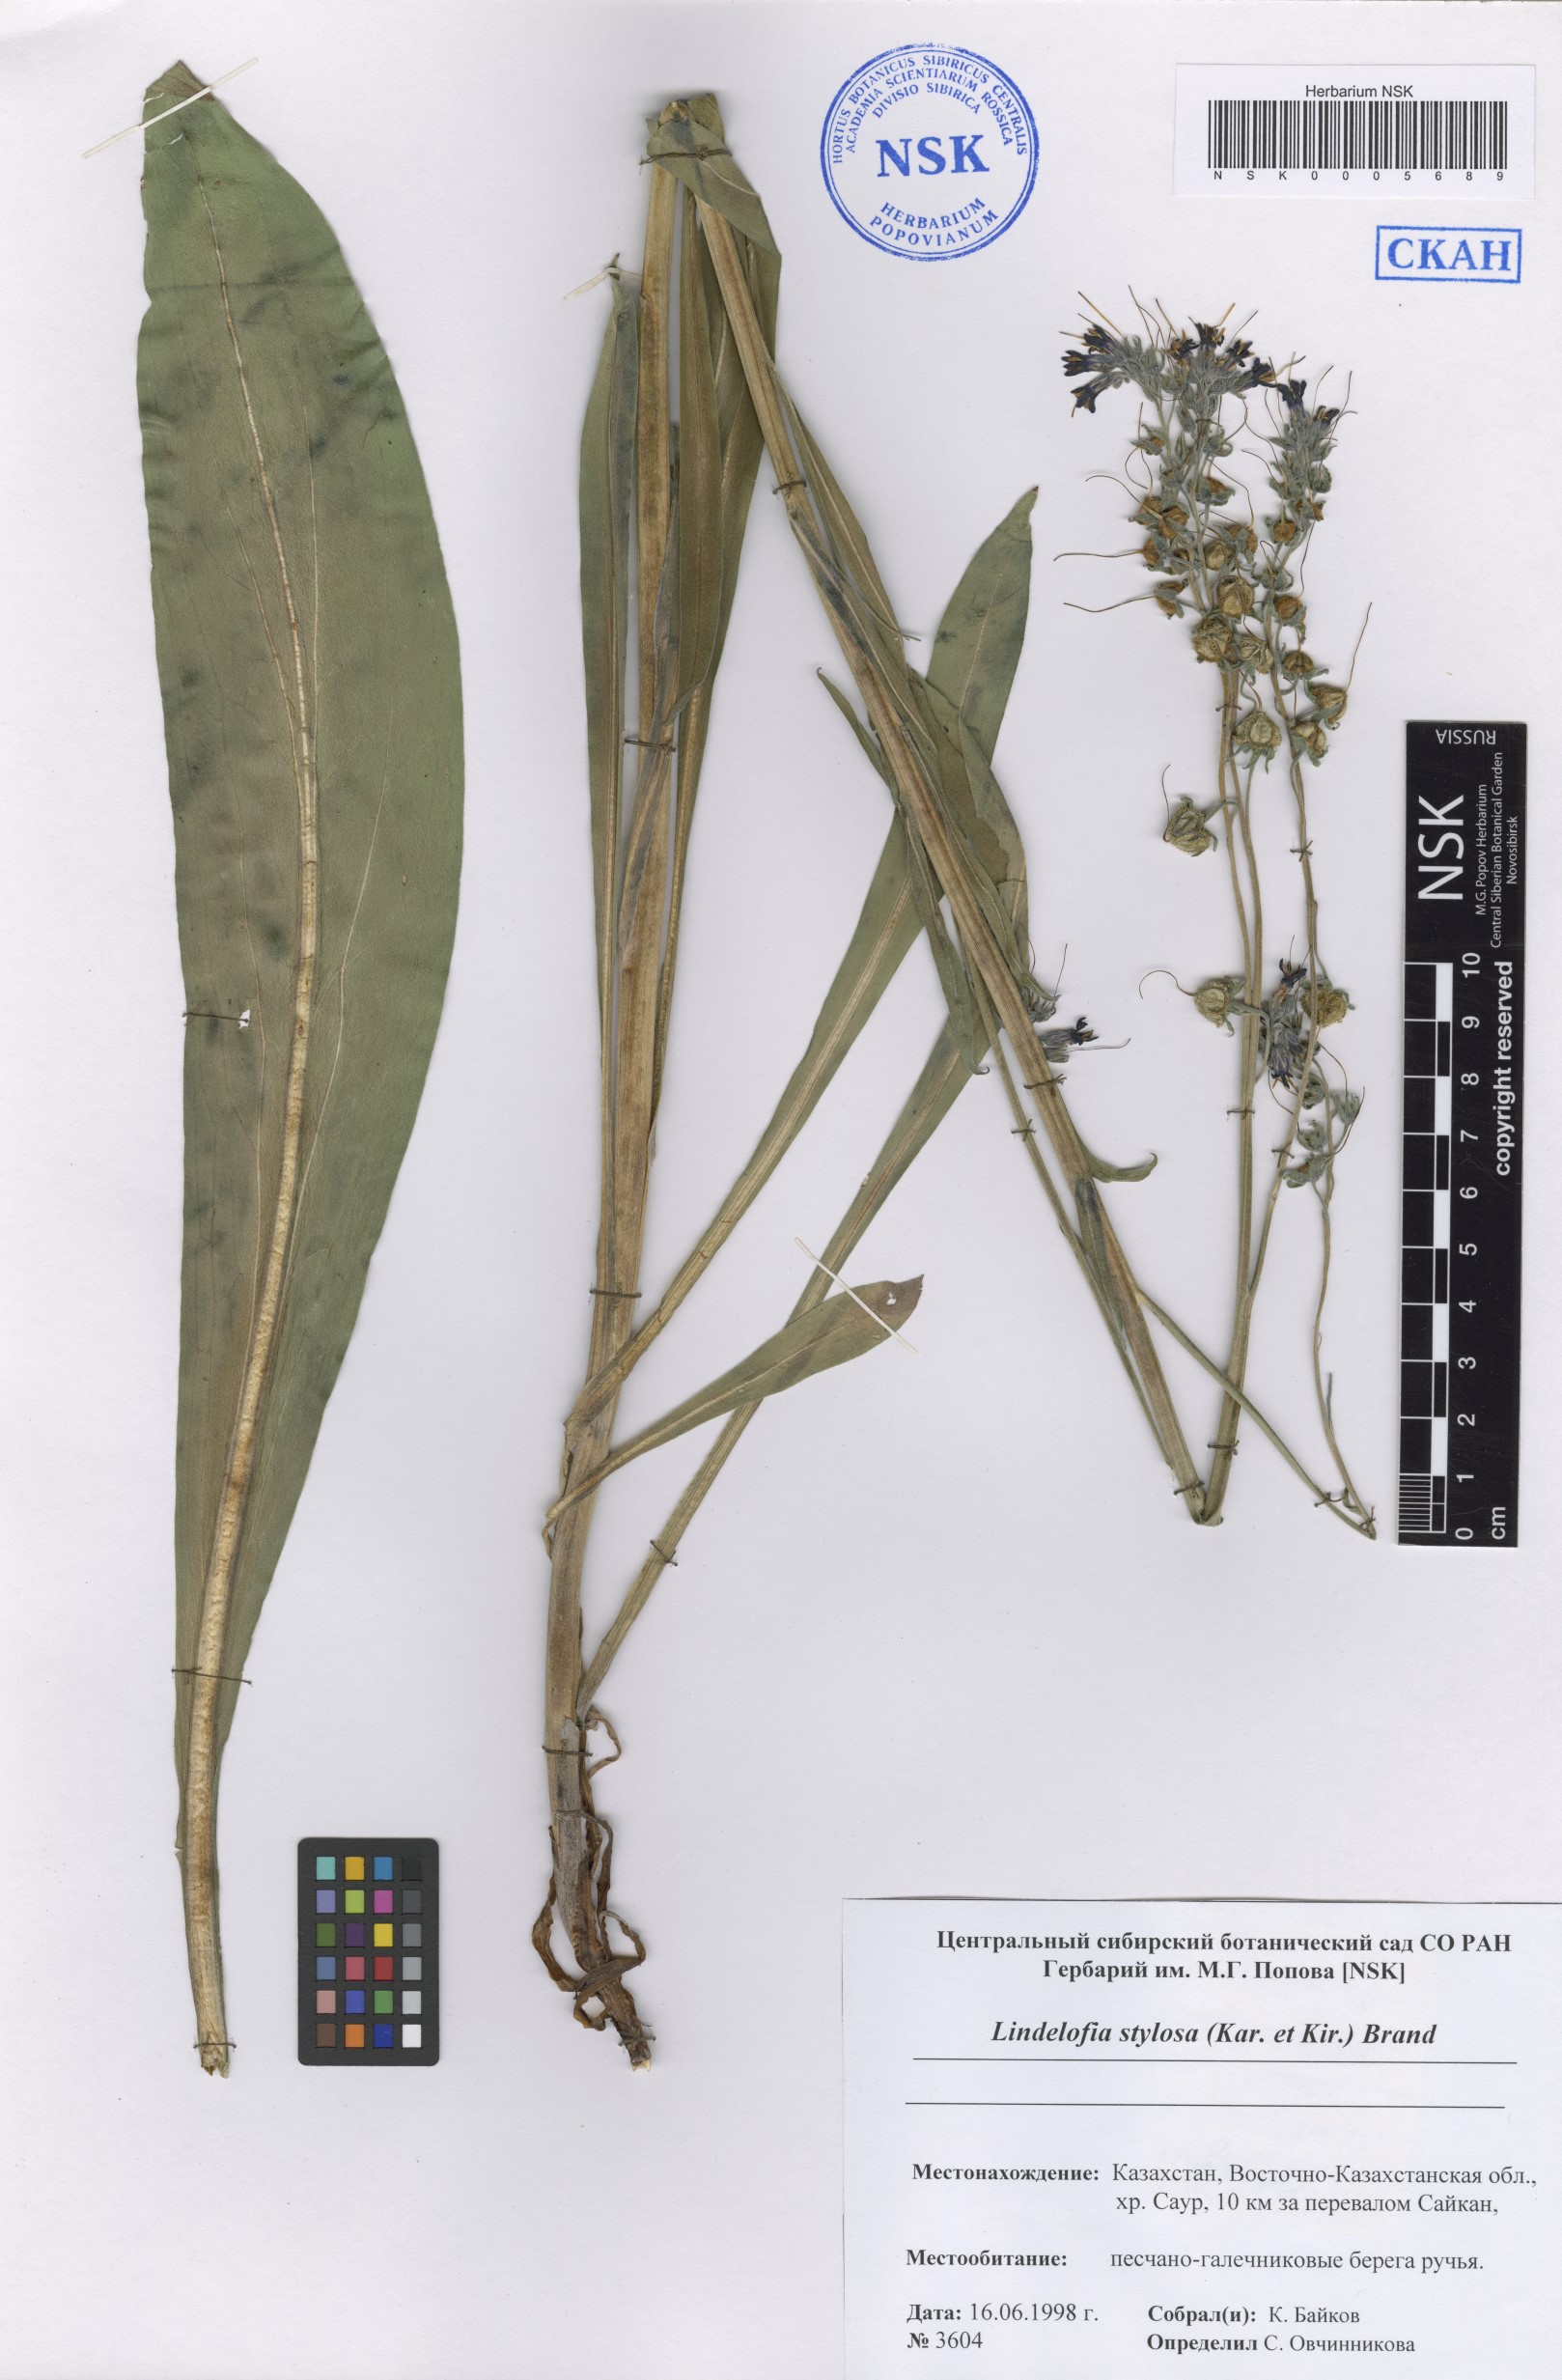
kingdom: Plantae
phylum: Tracheophyta
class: Magnoliopsida
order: Boraginales
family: Boraginaceae
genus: Lindelofia
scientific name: Lindelofia stylosa
